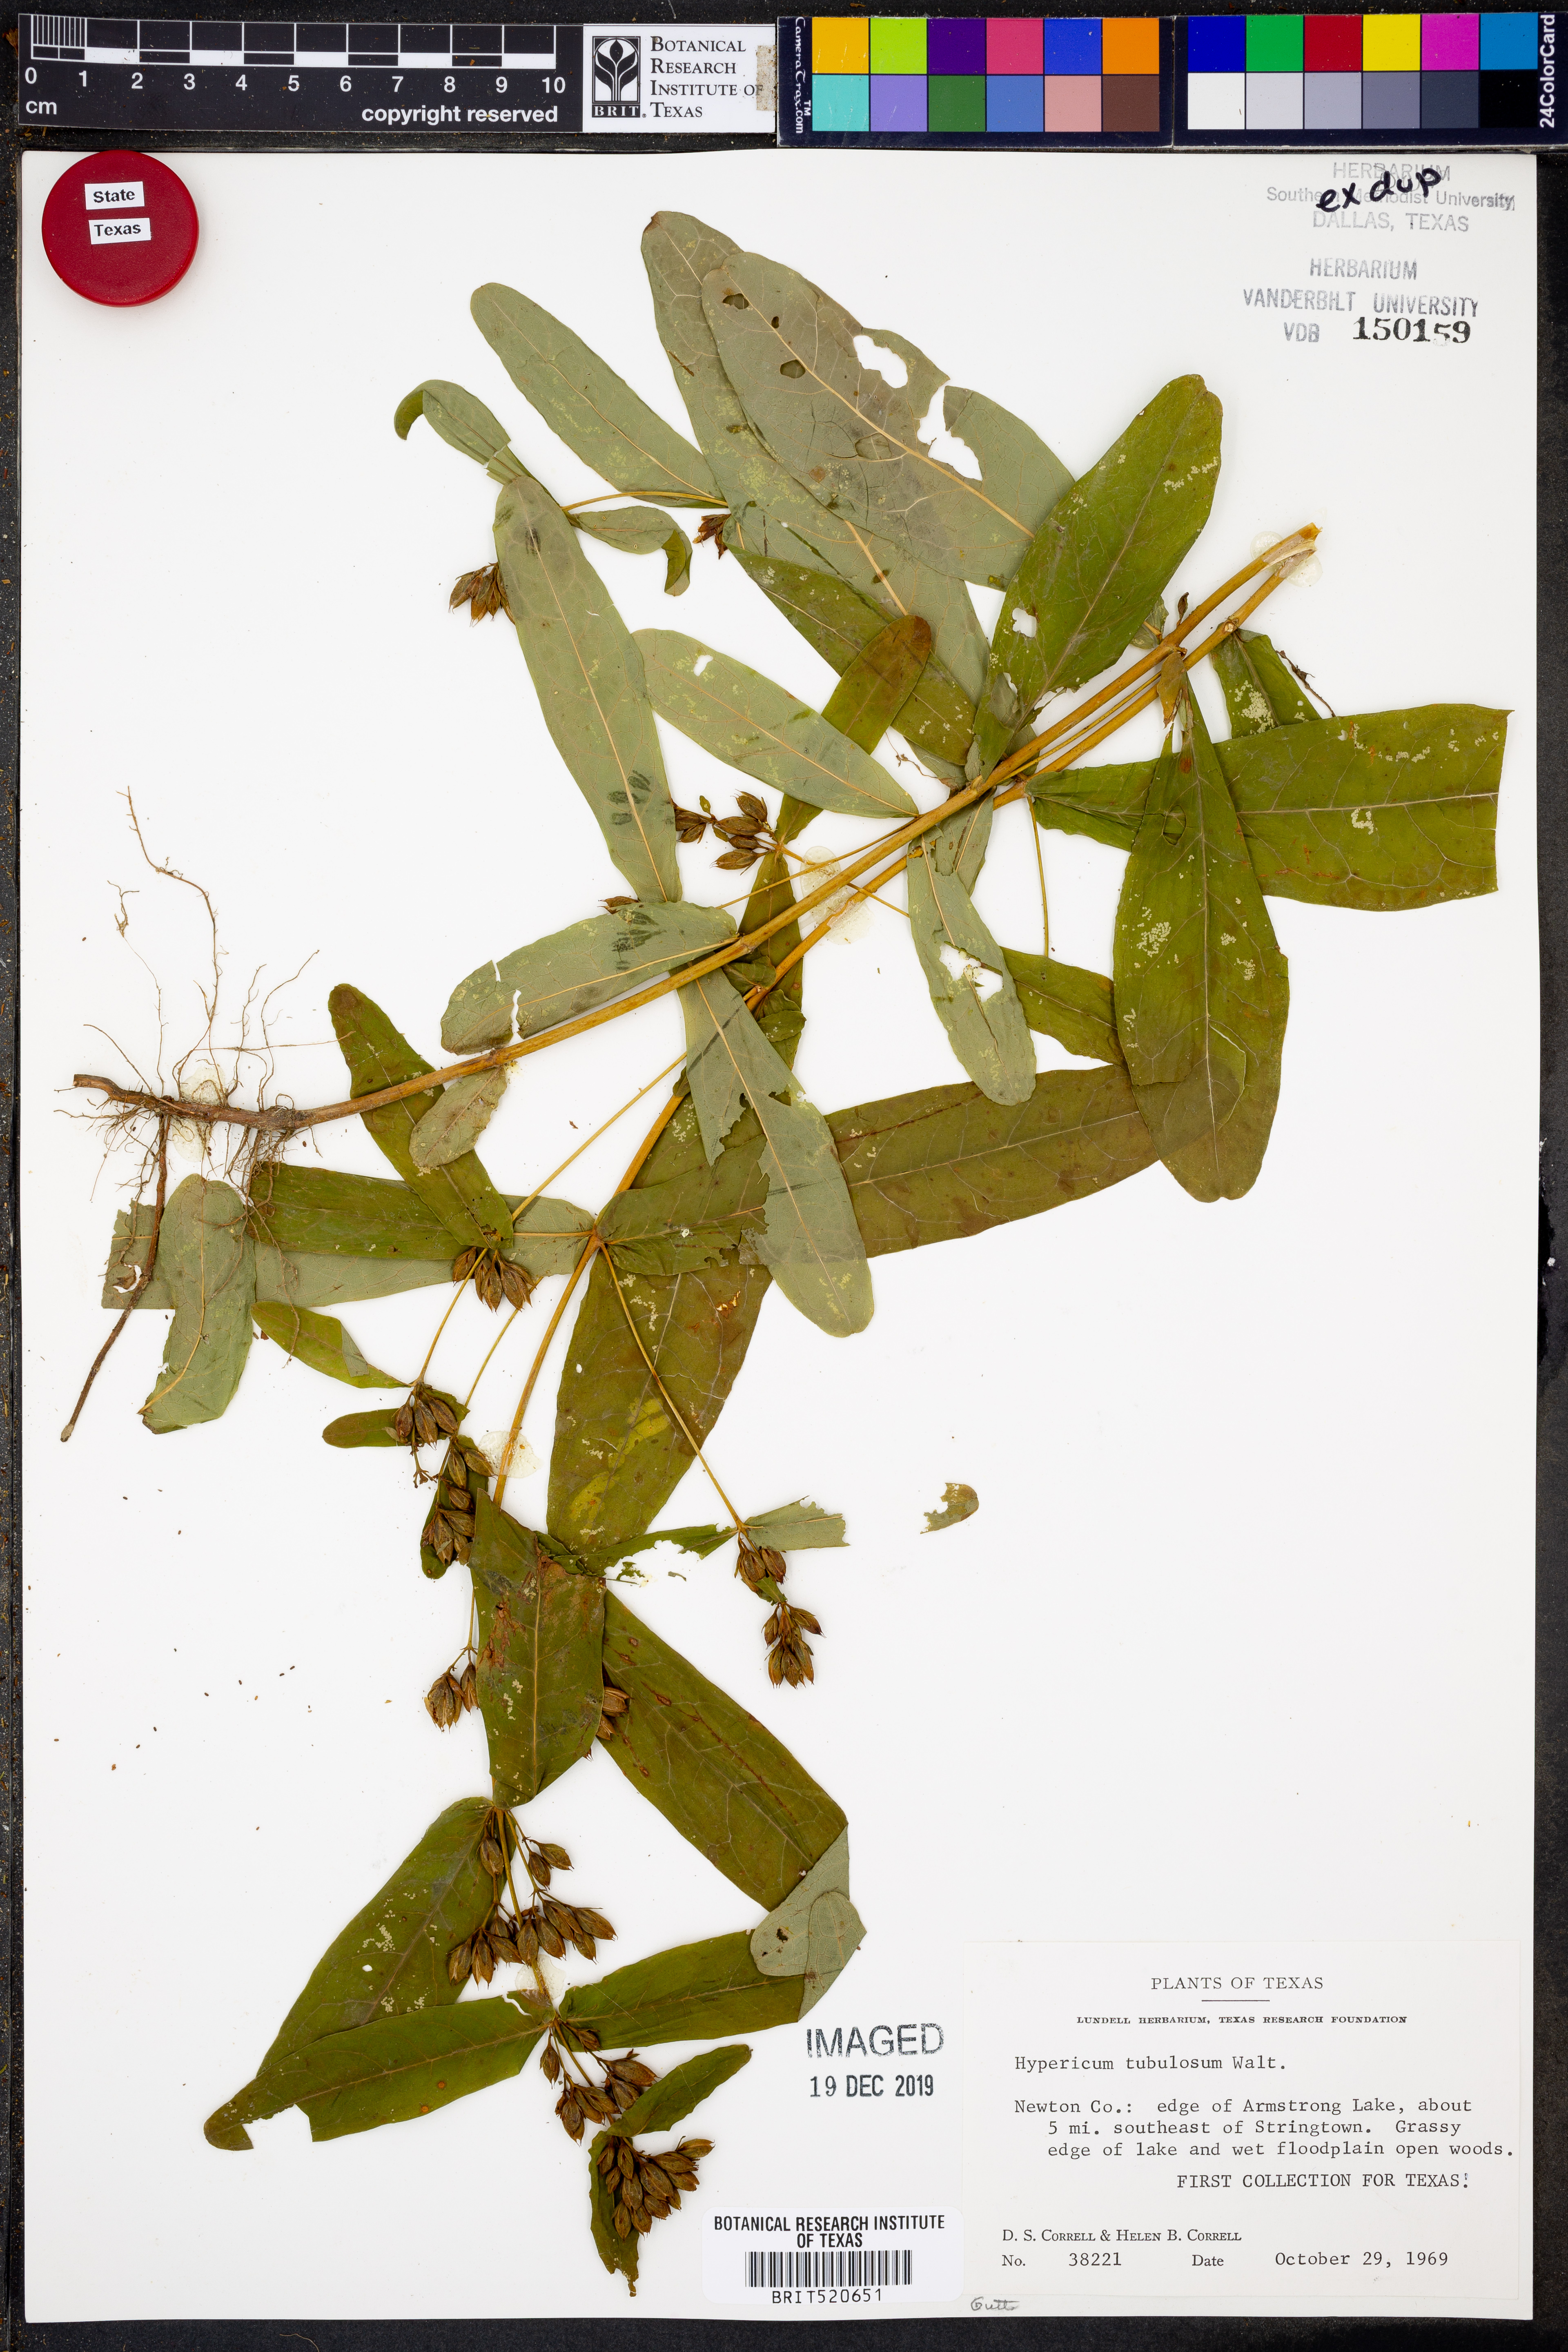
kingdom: Plantae
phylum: Tracheophyta
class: Magnoliopsida
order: Malpighiales
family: Hypericaceae
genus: Triadenum
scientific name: Triadenum tubulosum
